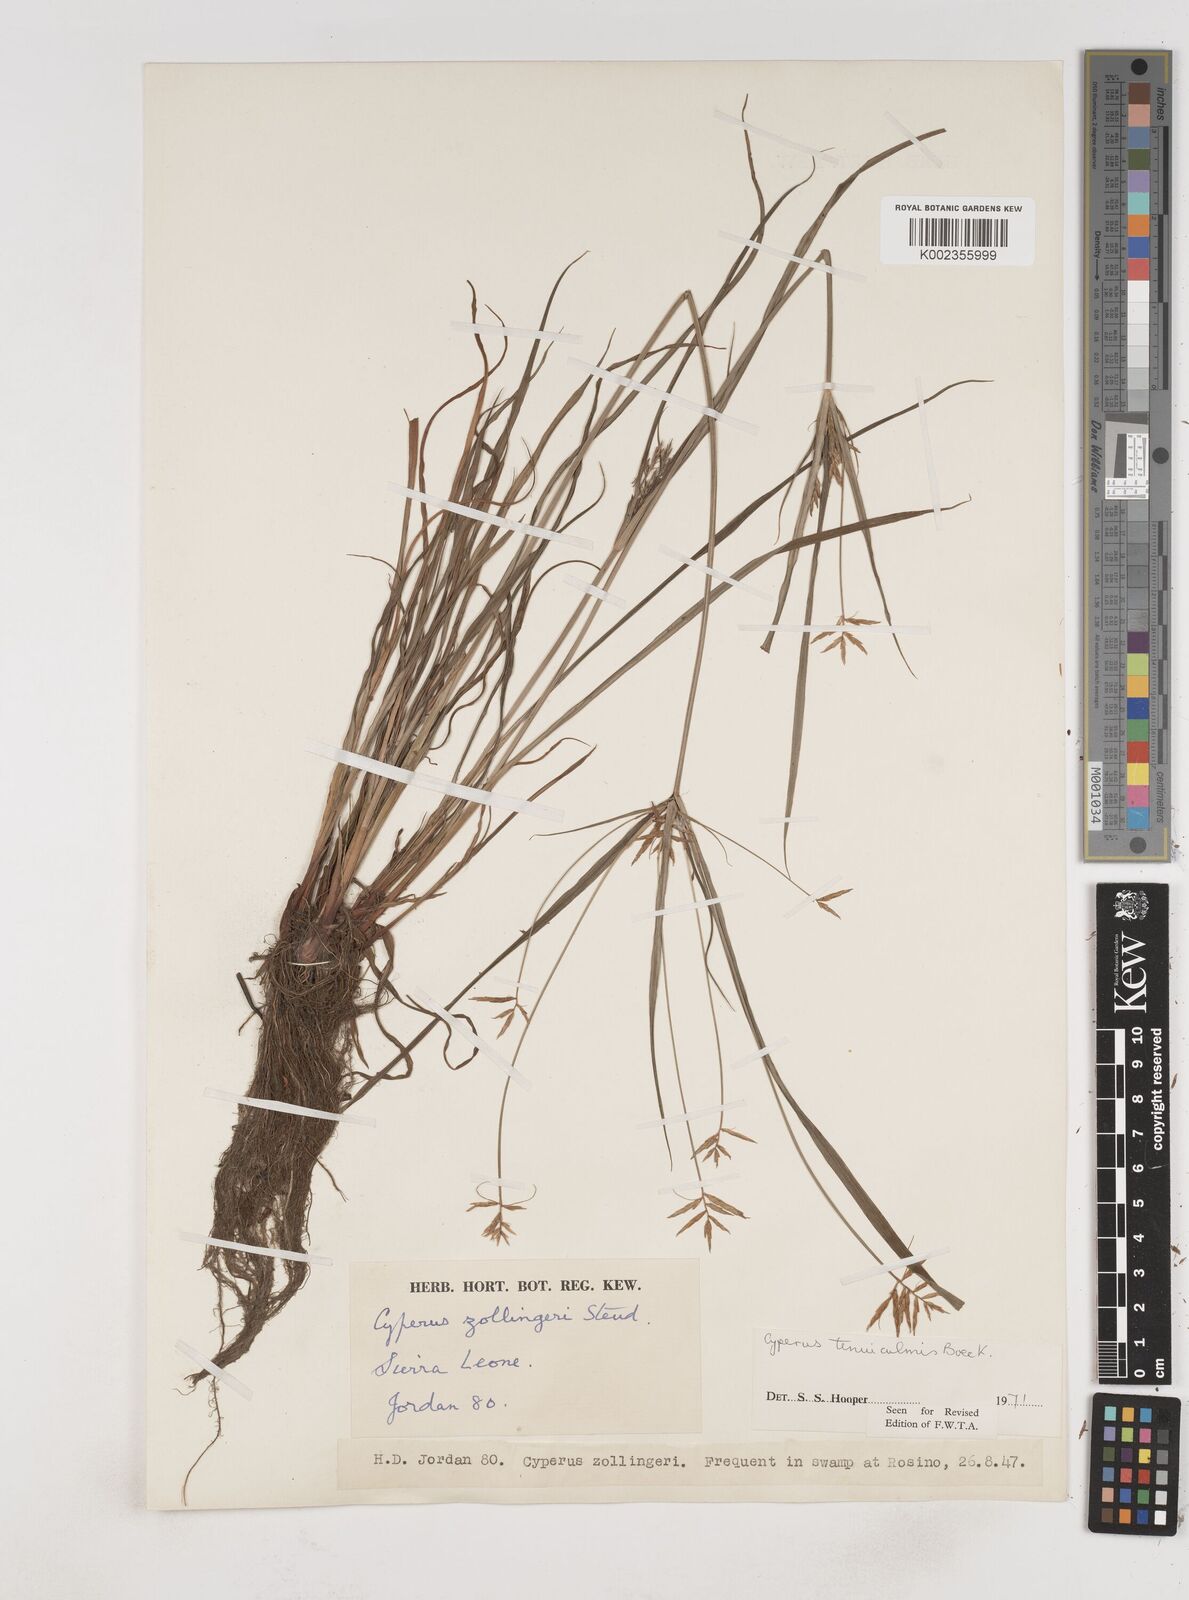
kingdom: Plantae
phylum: Tracheophyta
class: Liliopsida
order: Poales
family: Cyperaceae
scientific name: Cyperaceae
